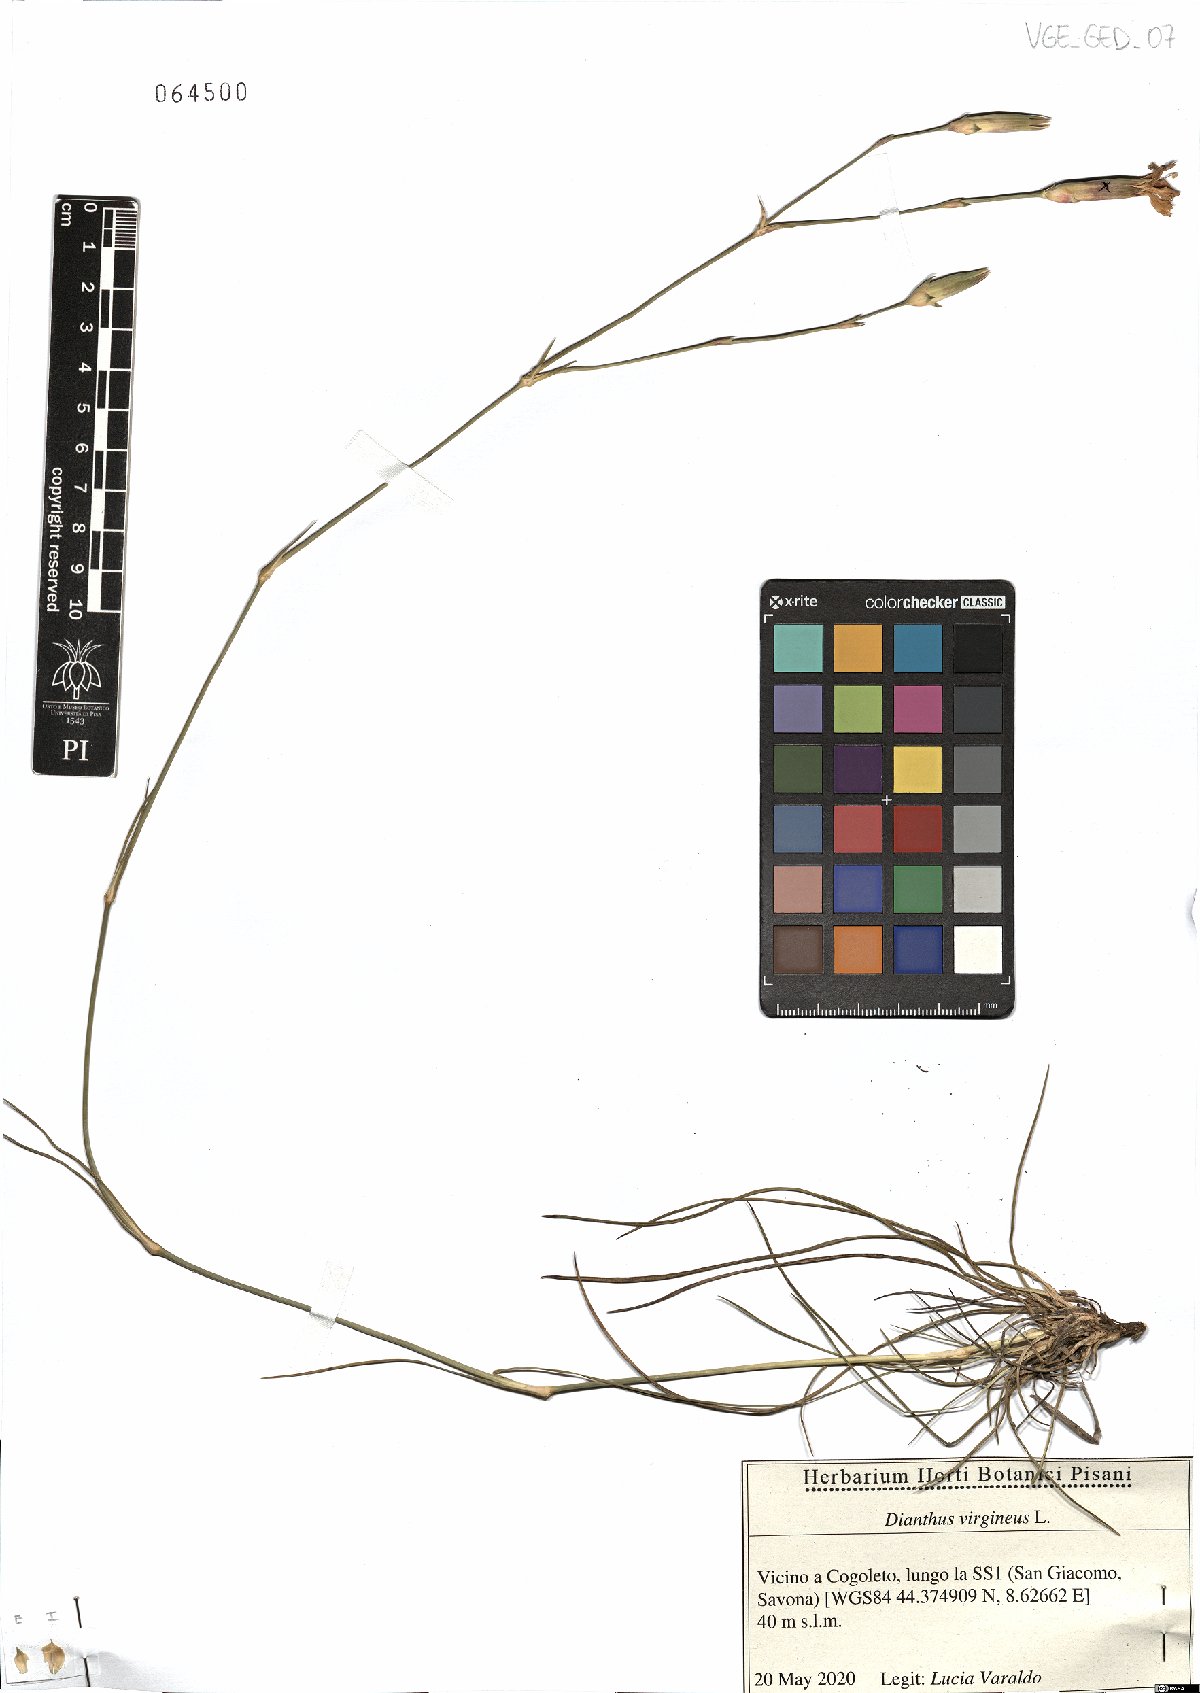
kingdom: Plantae
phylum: Tracheophyta
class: Magnoliopsida
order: Caryophyllales
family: Caryophyllaceae
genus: Dianthus
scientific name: Dianthus virgineus
